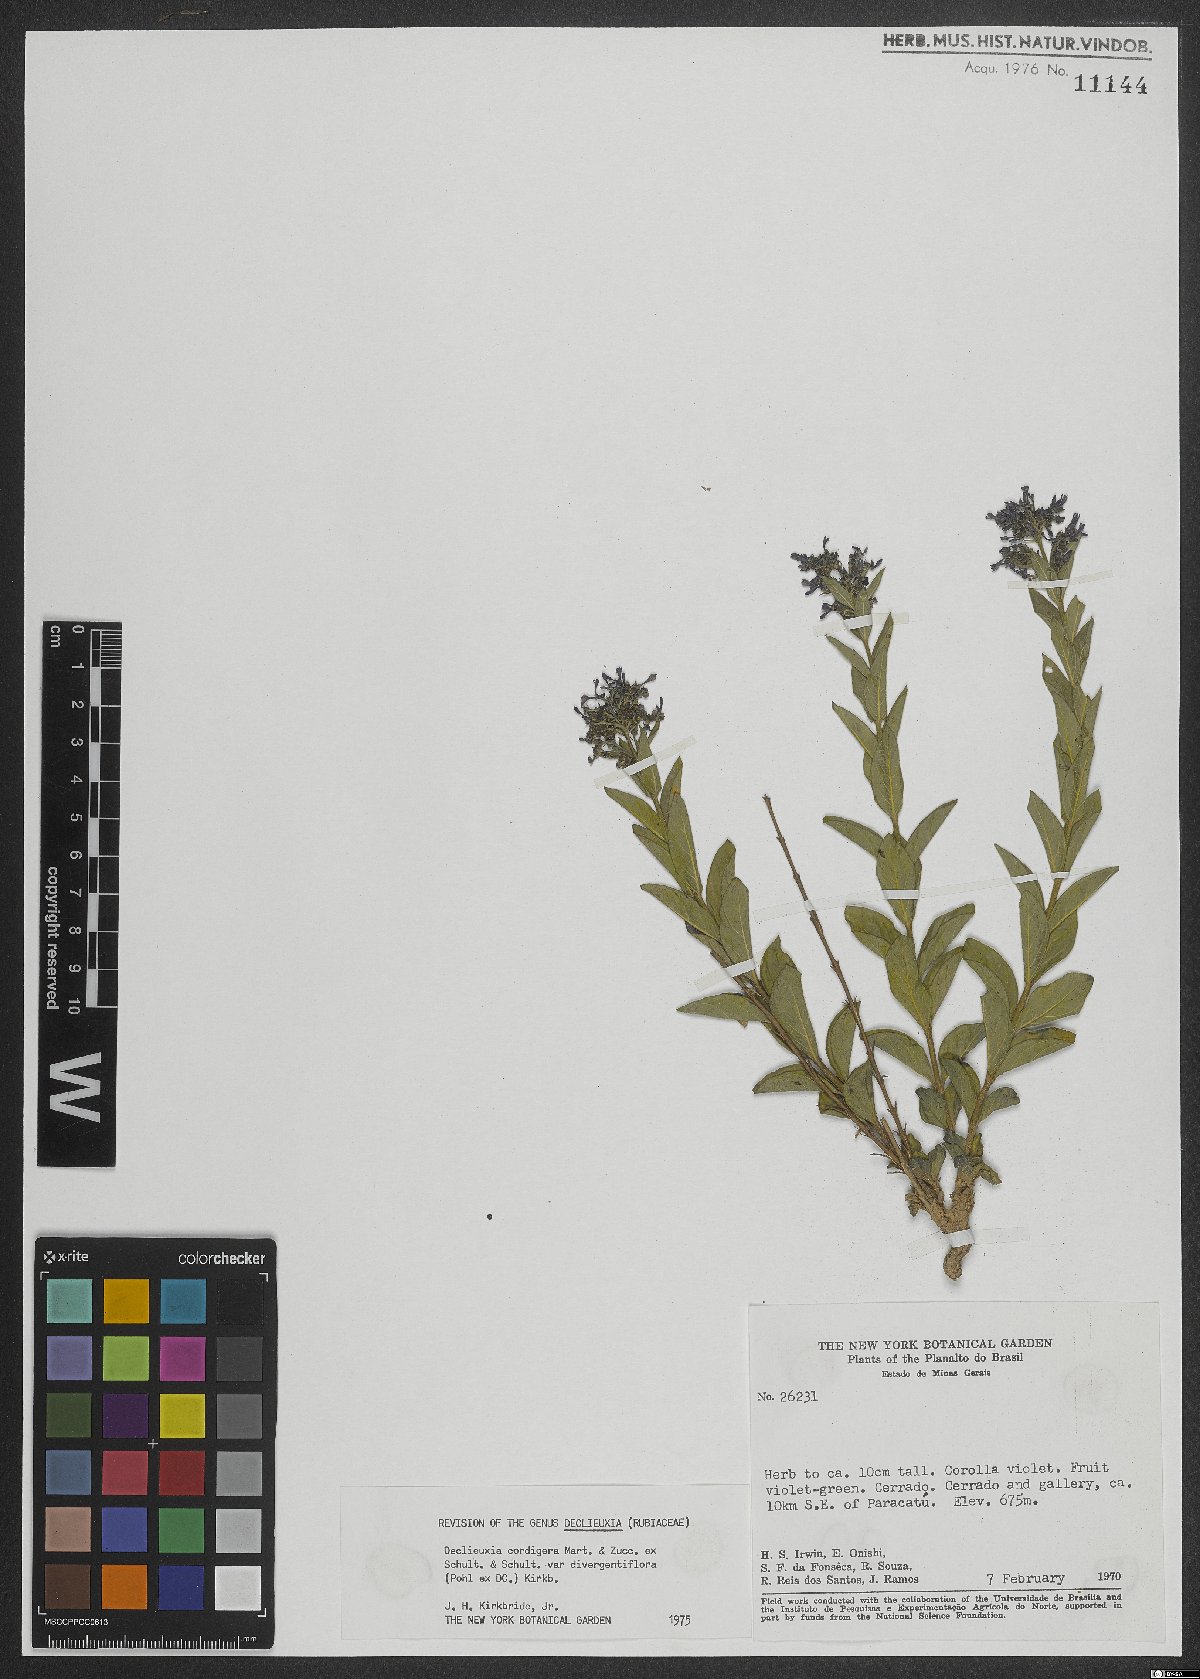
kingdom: Plantae
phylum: Tracheophyta
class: Magnoliopsida
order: Gentianales
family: Rubiaceae
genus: Declieuxia
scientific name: Declieuxia lysimachioides
